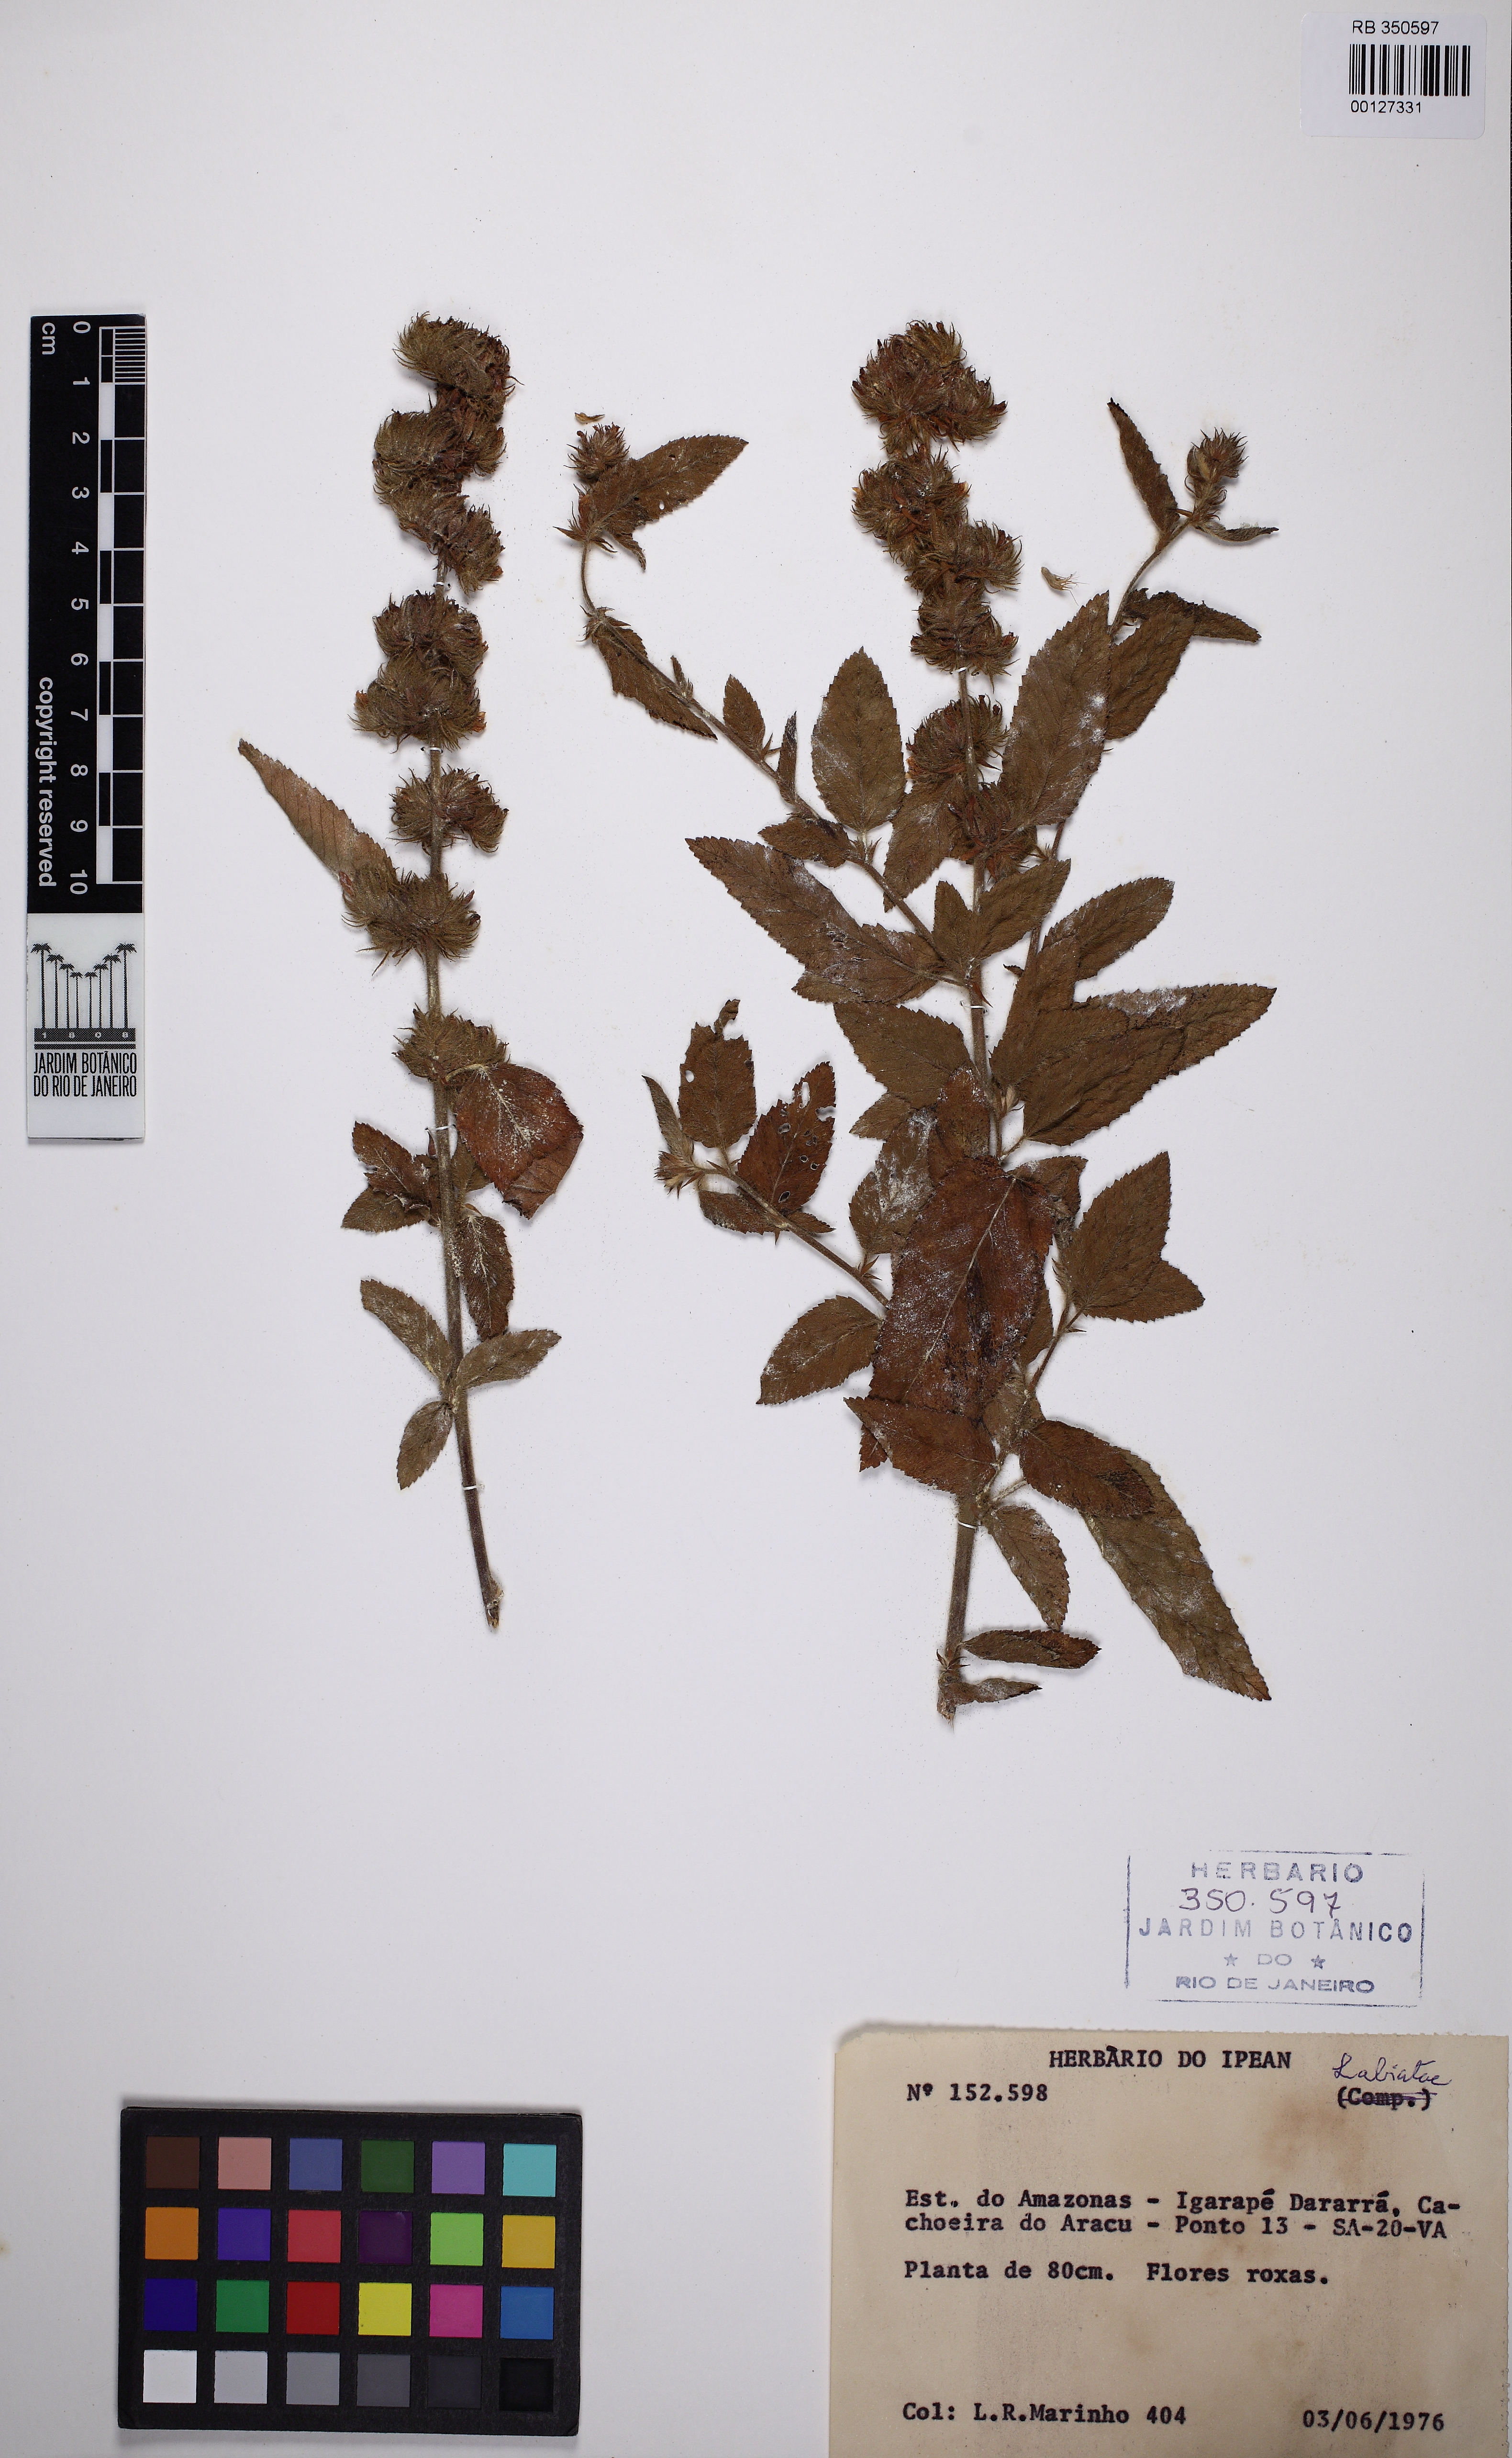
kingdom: Plantae
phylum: Tracheophyta
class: Magnoliopsida
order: Malvales
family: Malvaceae
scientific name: Malvaceae
